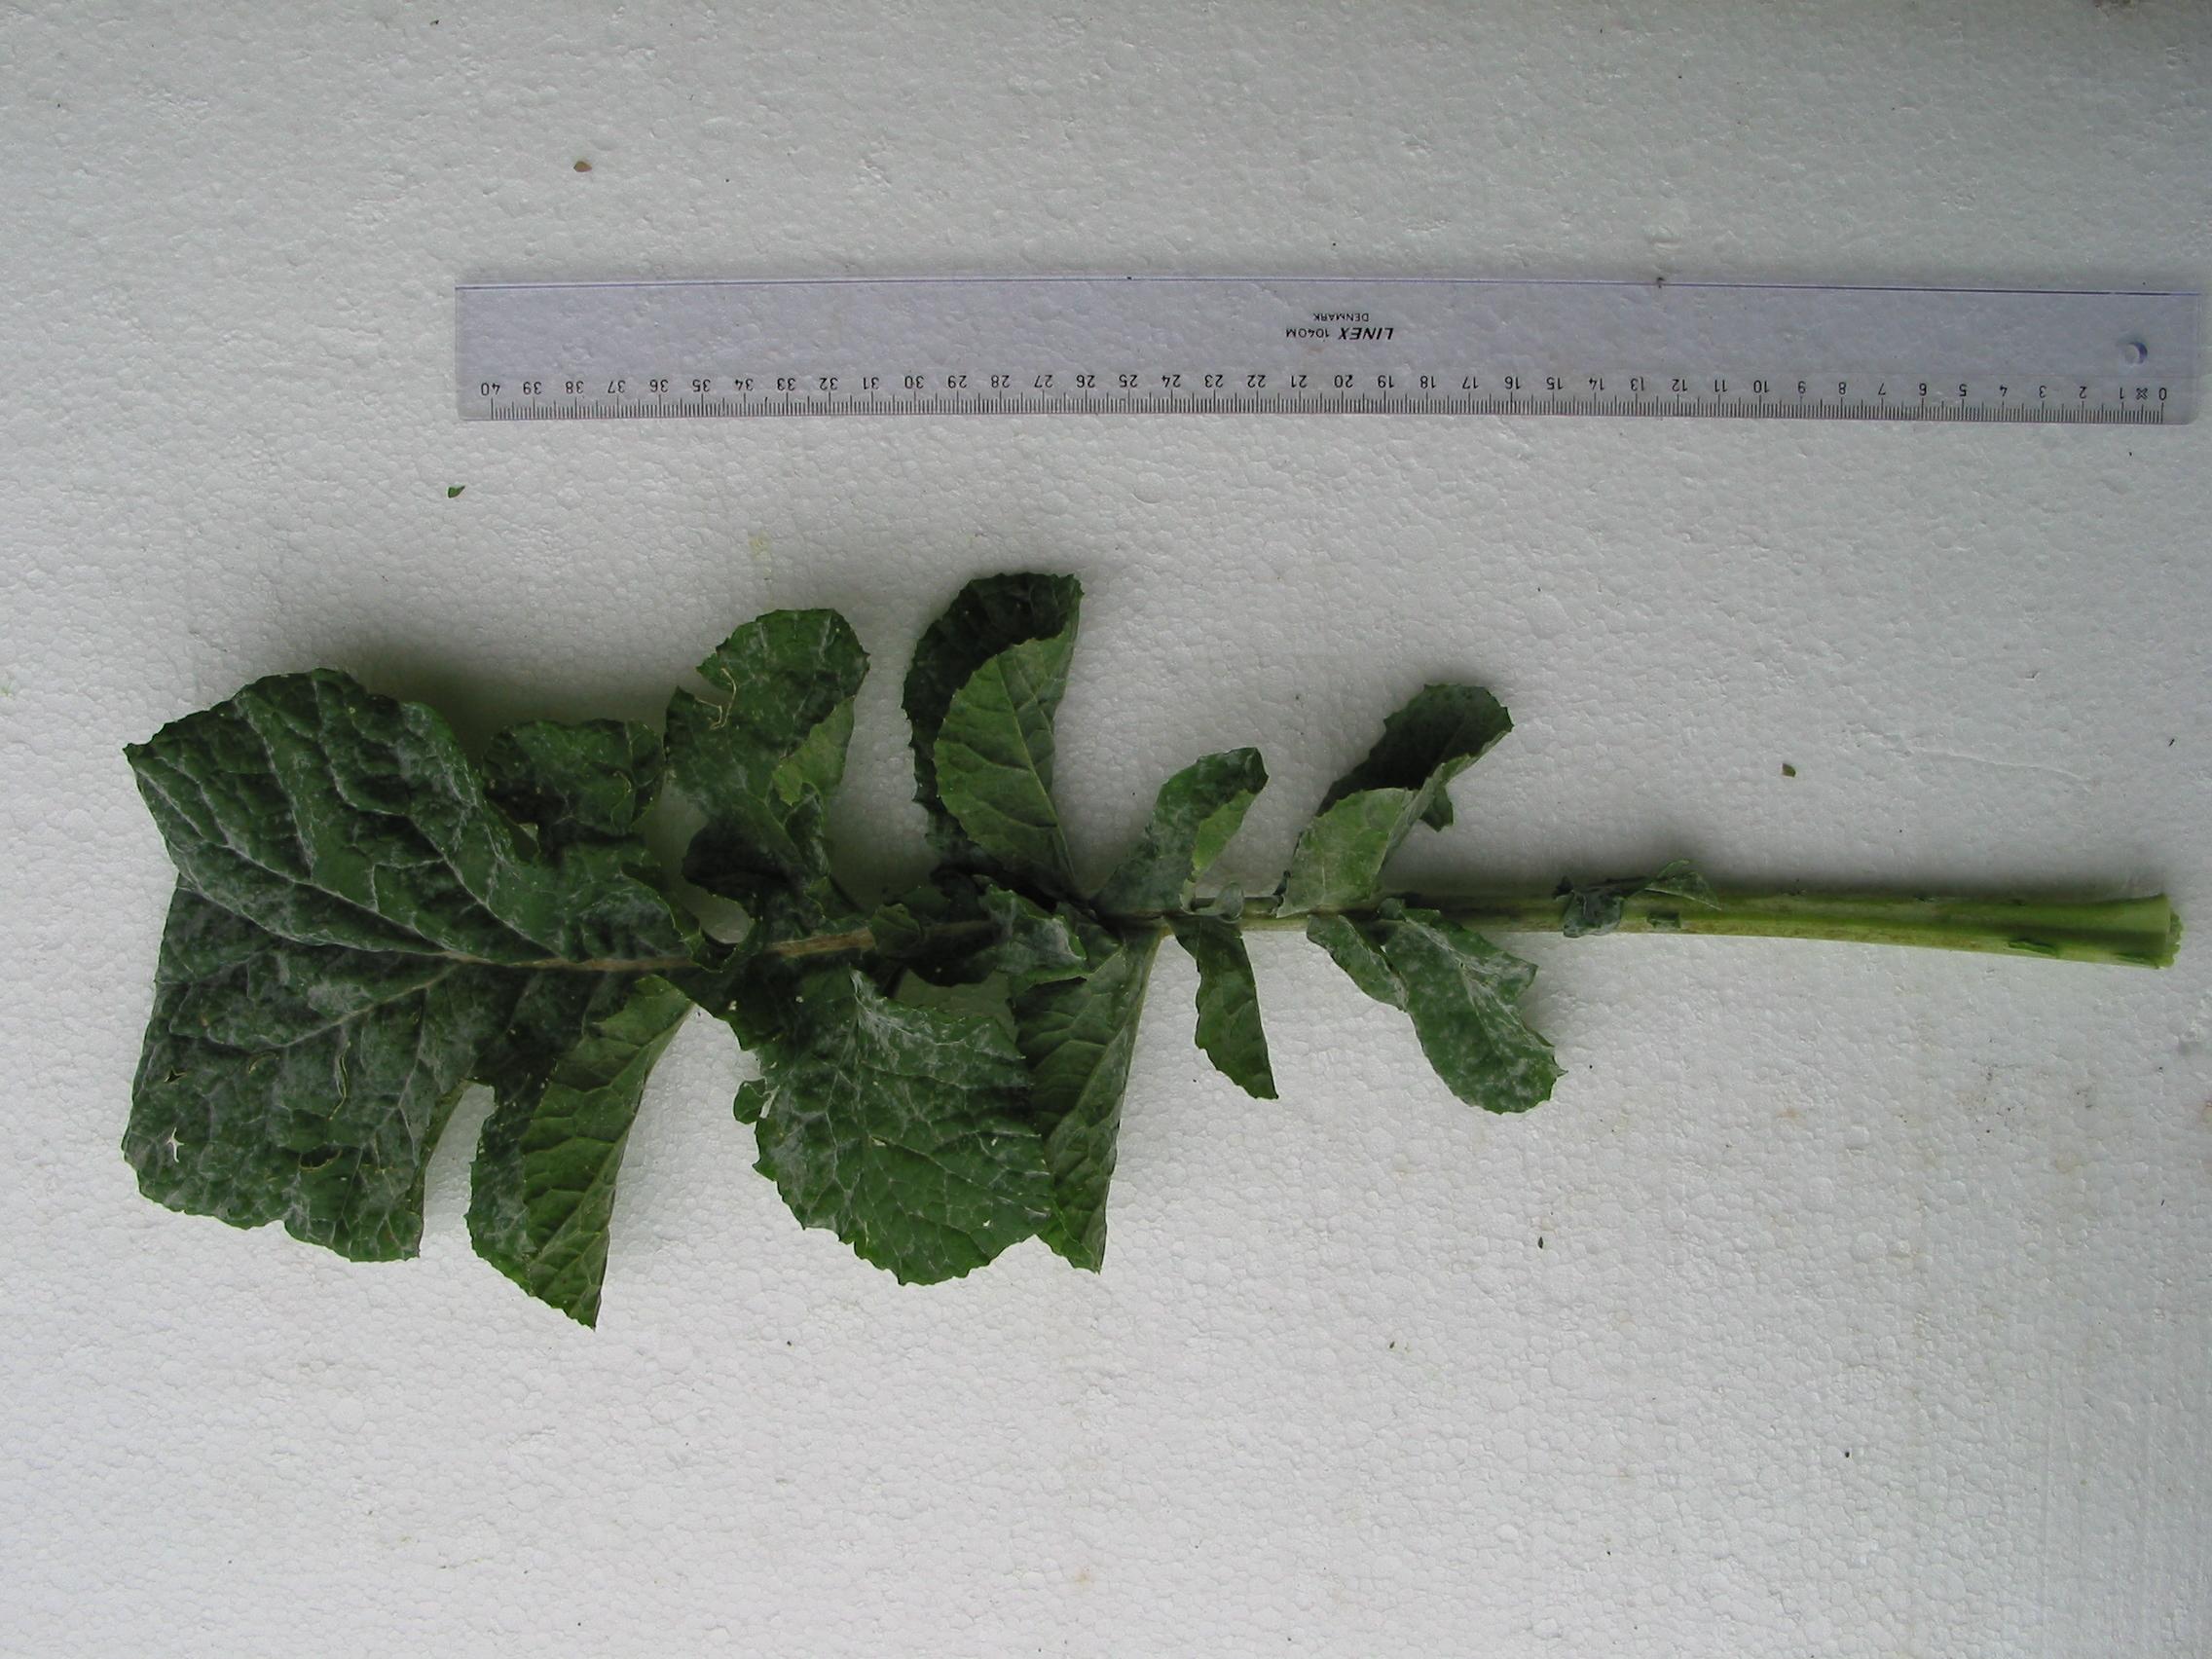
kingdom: Plantae
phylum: Tracheophyta
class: Magnoliopsida
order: Brassicales
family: Brassicaceae
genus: Brassica
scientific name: Brassica napus
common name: Rape
